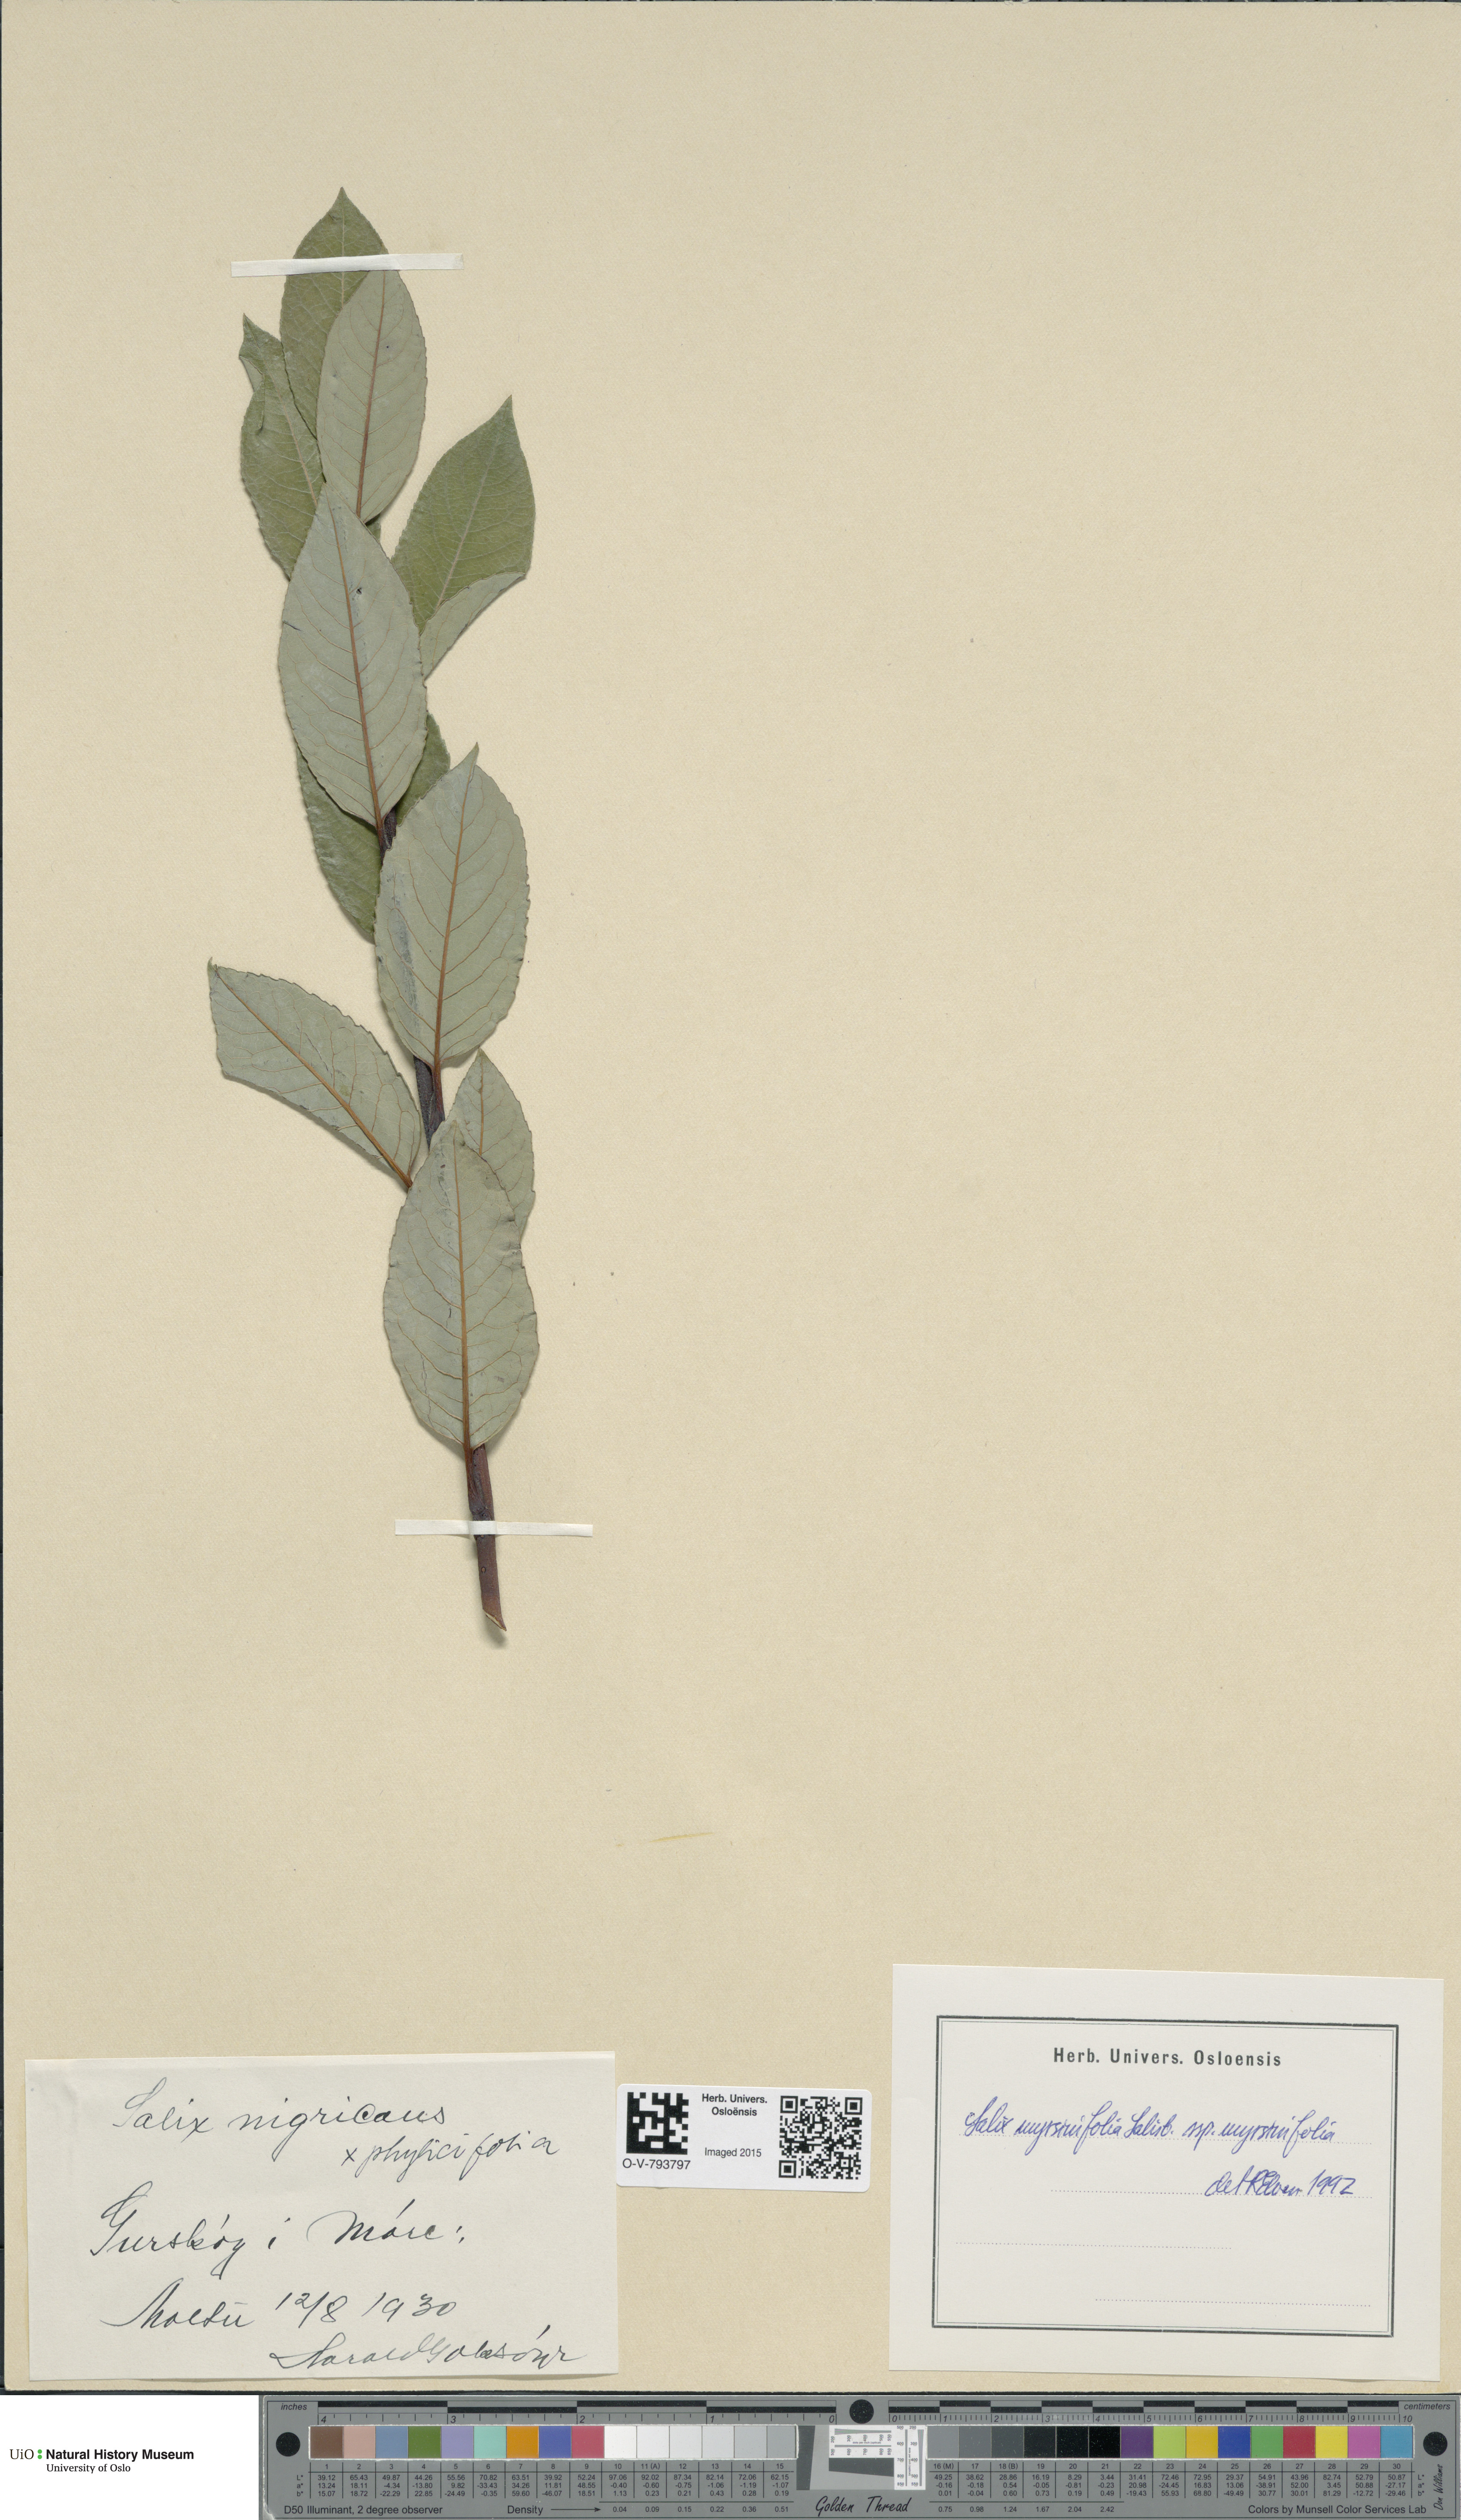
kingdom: Plantae
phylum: Tracheophyta
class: Magnoliopsida
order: Malpighiales
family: Salicaceae
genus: Salix
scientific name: Salix myrsinifolia
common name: Dark-leaved willow
